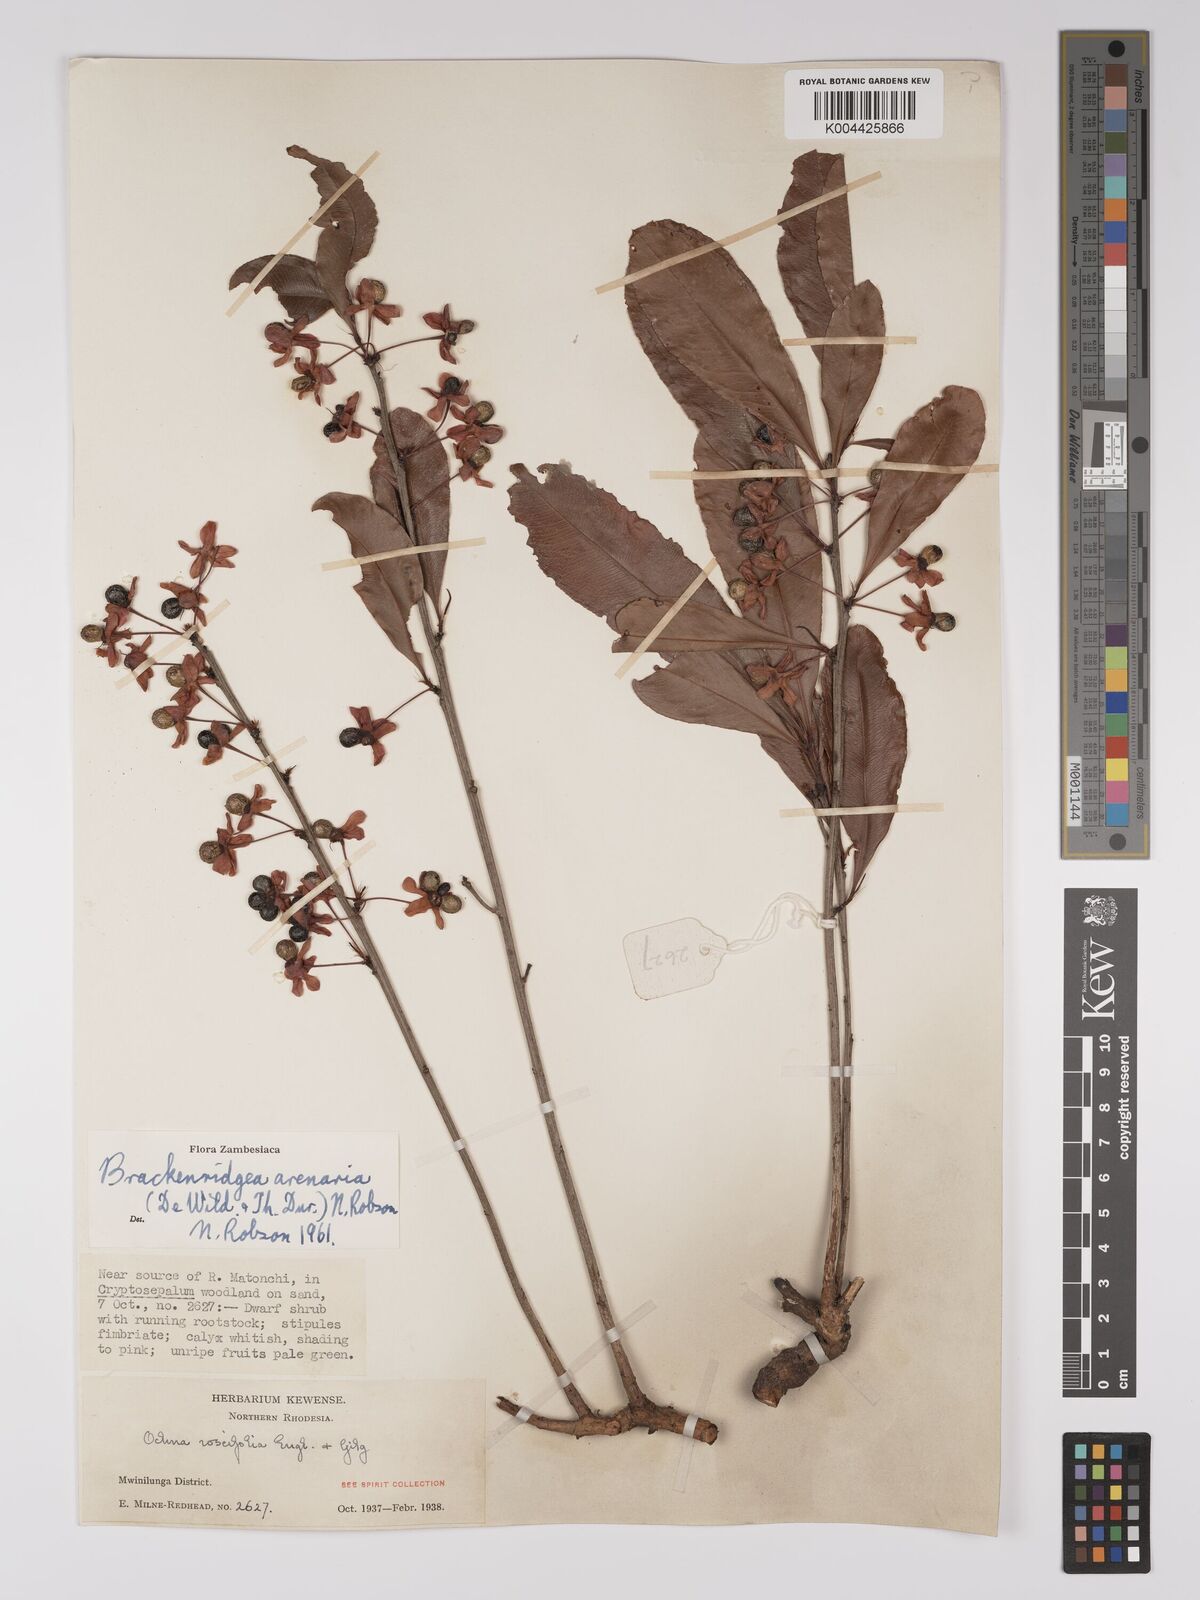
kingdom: Plantae
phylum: Tracheophyta
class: Magnoliopsida
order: Malpighiales
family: Ochnaceae
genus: Ochna
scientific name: Ochna arenaria
